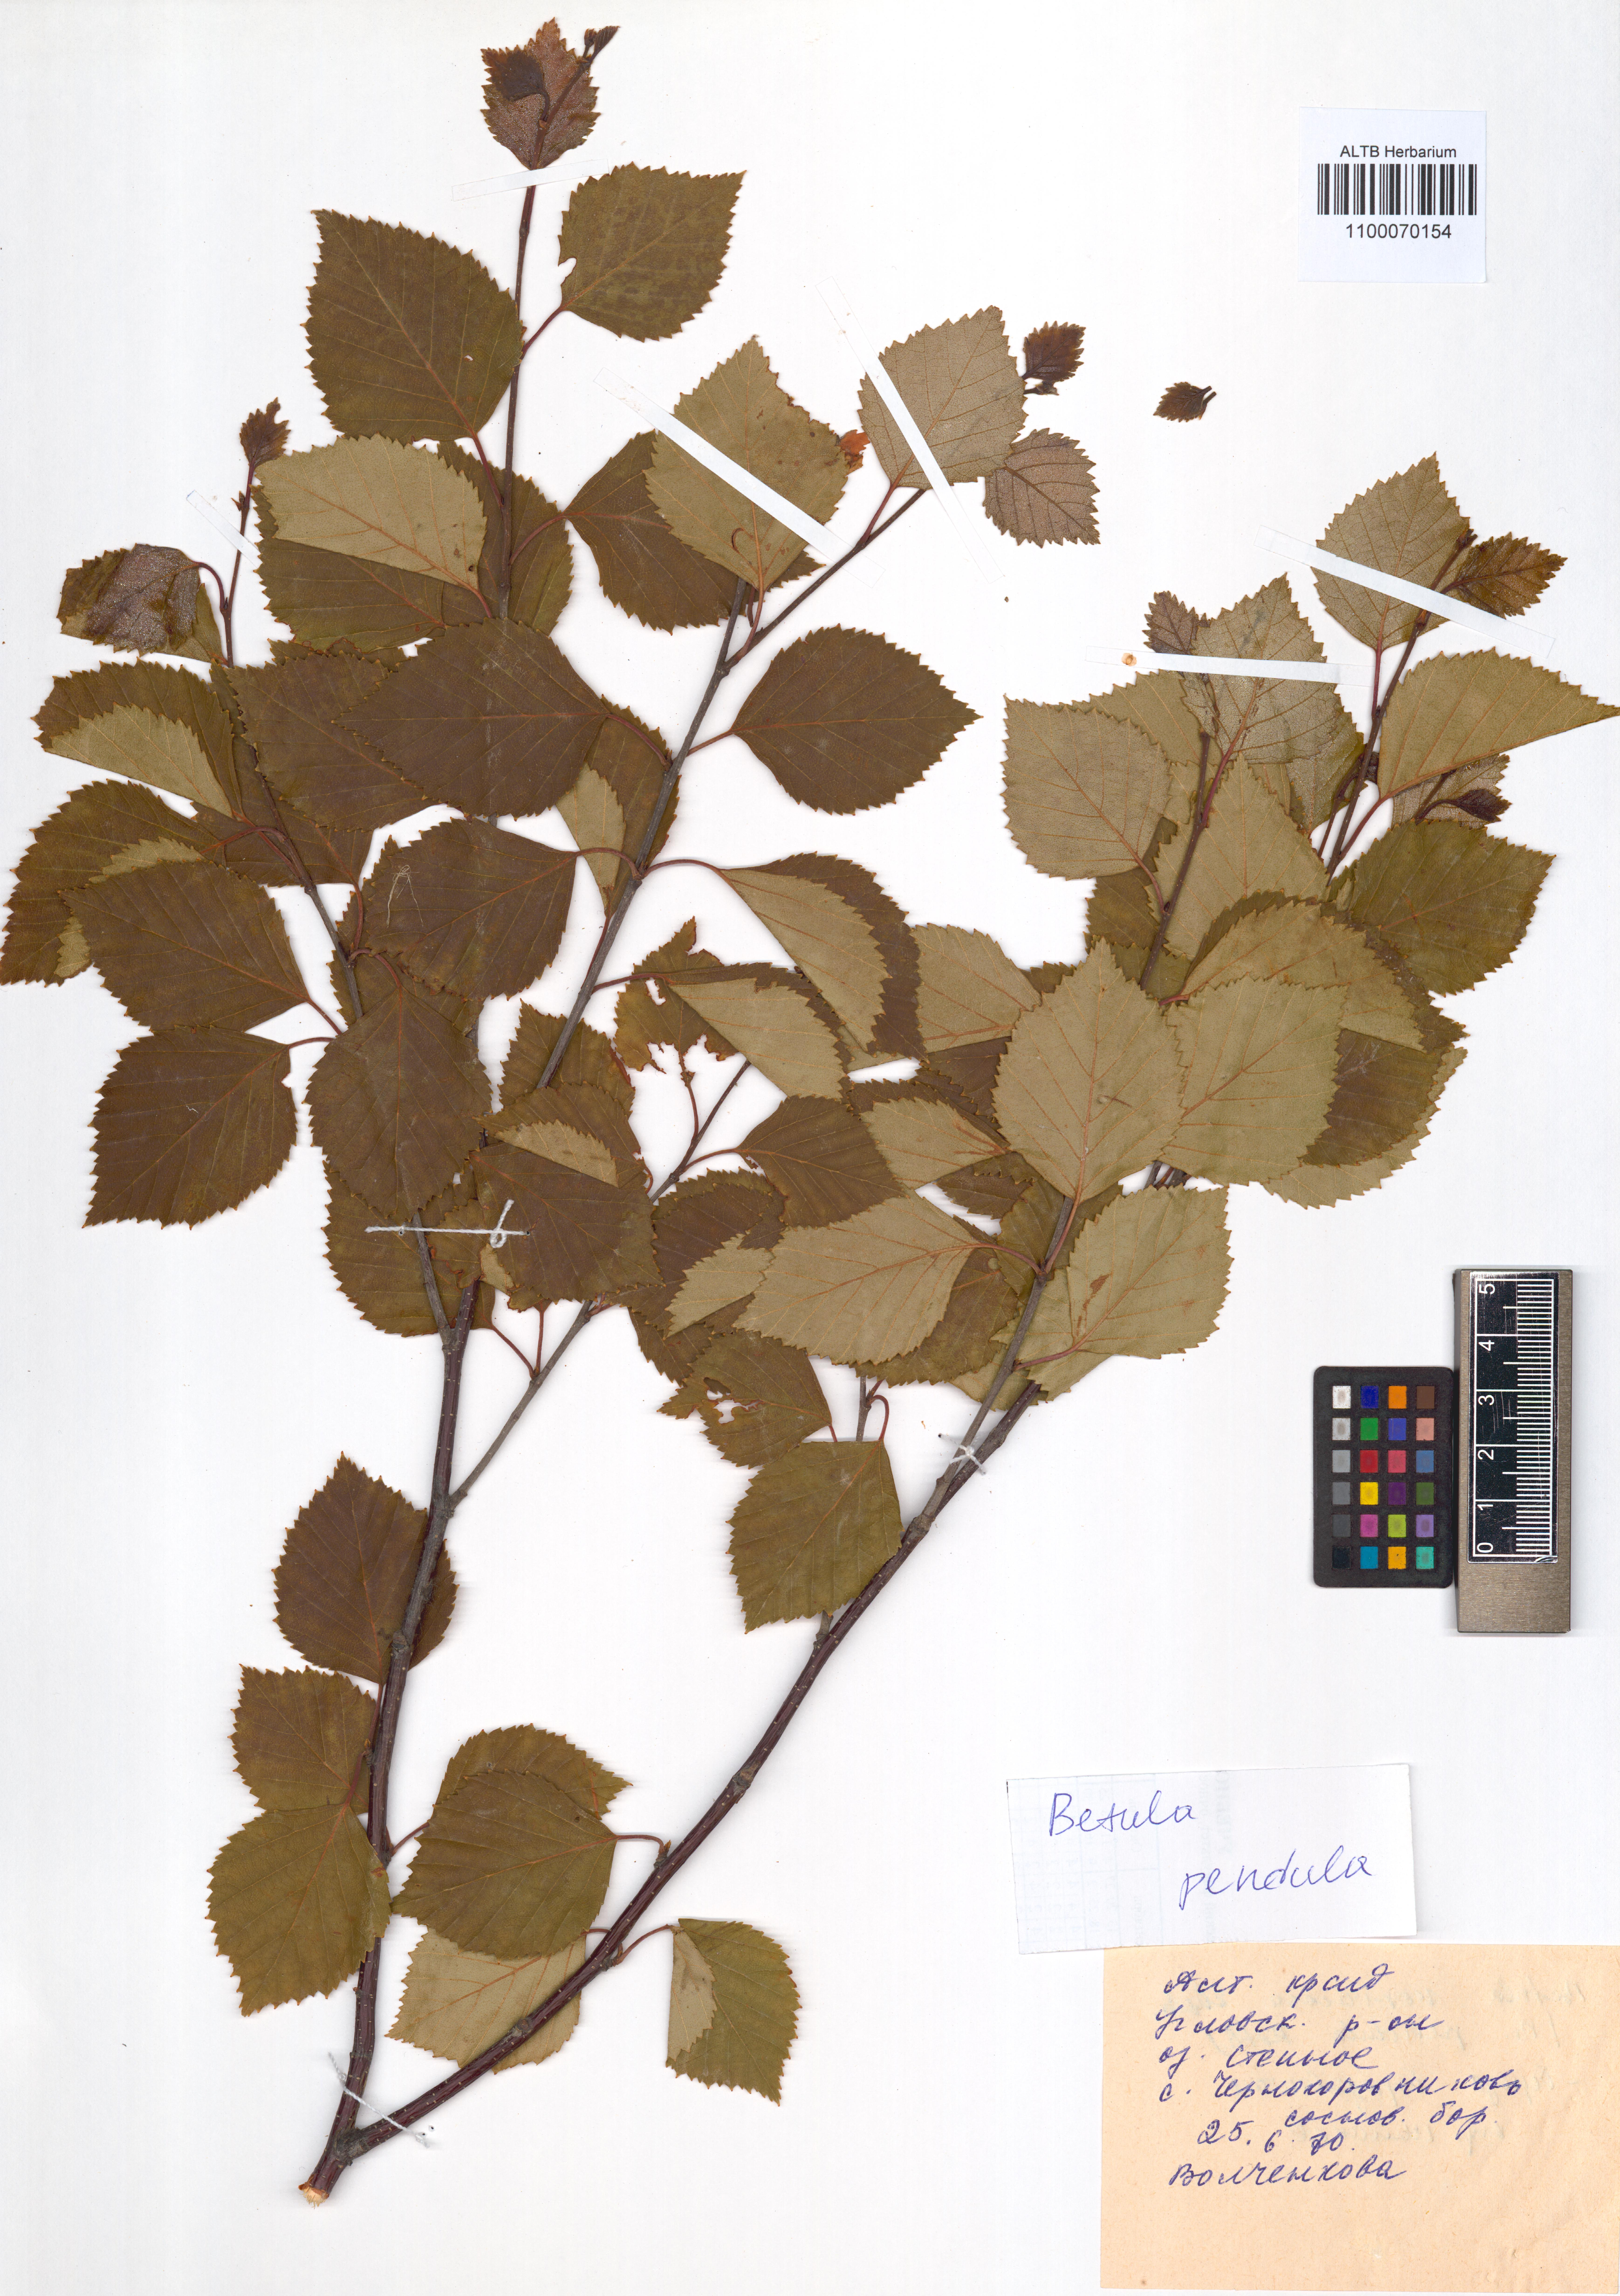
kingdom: Plantae
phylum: Tracheophyta
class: Magnoliopsida
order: Fagales
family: Betulaceae
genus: Betula
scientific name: Betula pendula
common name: Silver birch
